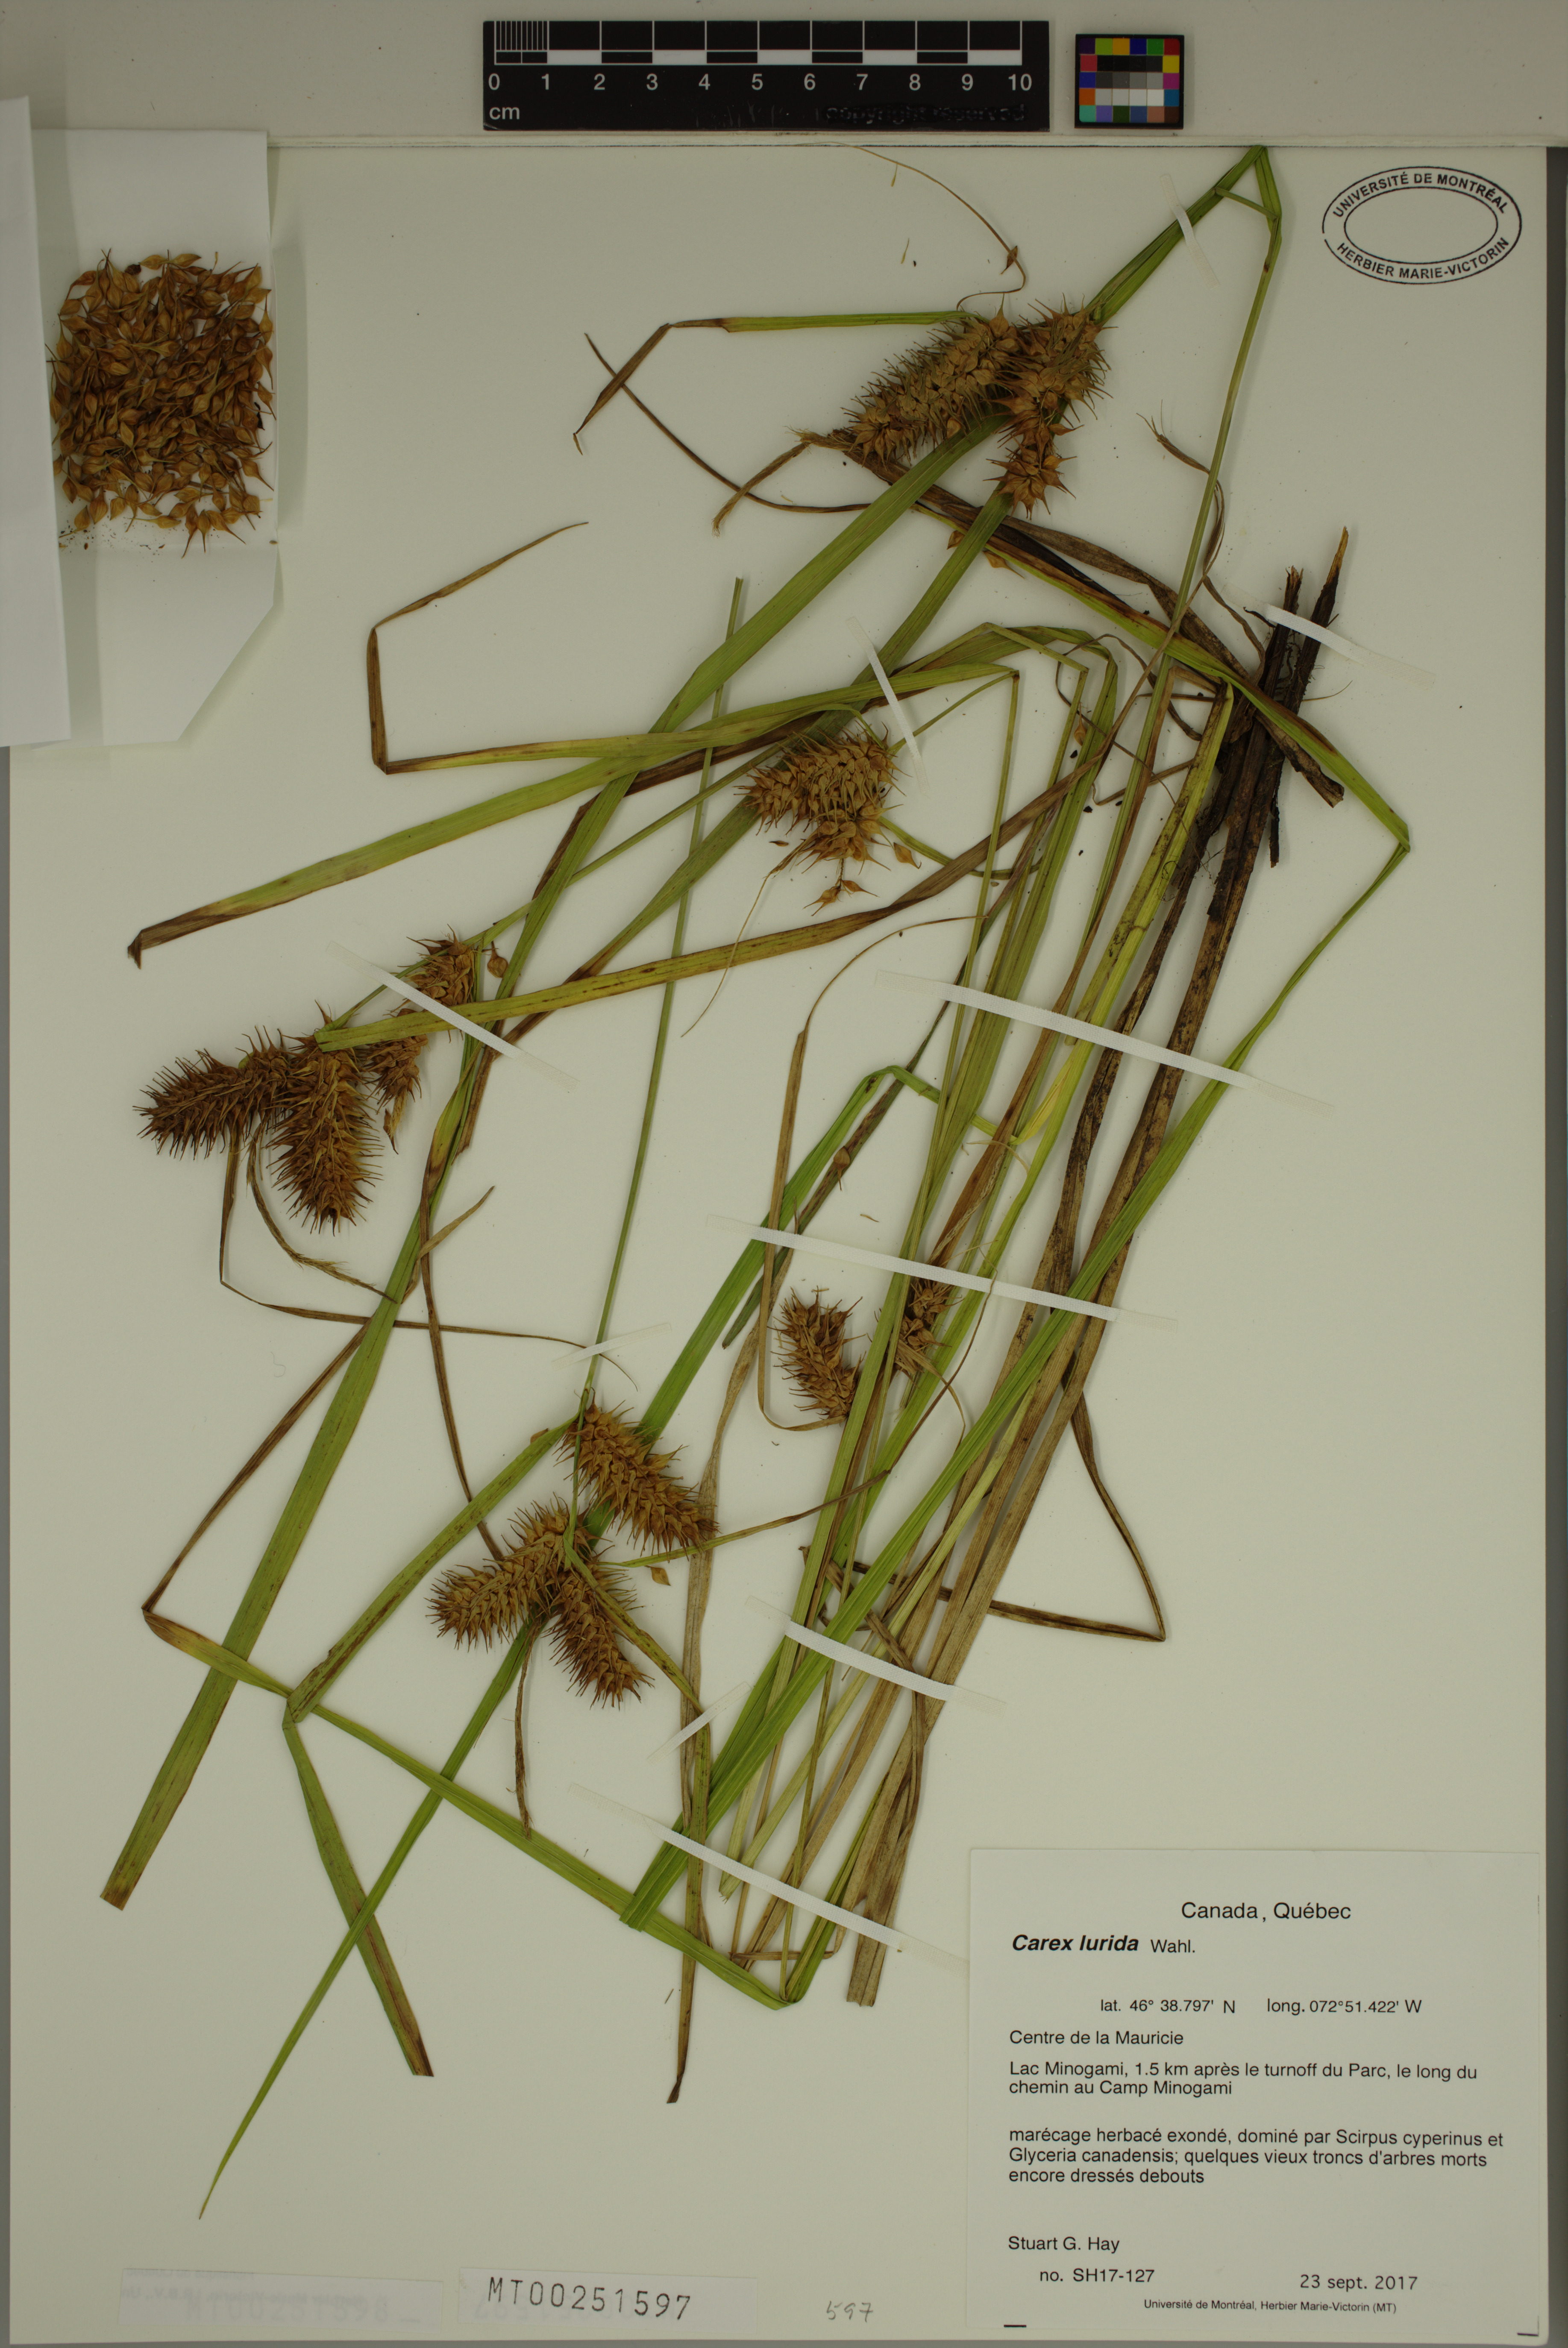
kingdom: Plantae
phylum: Tracheophyta
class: Liliopsida
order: Poales
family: Cyperaceae
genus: Carex
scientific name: Carex lurida
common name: Sallow sedge
